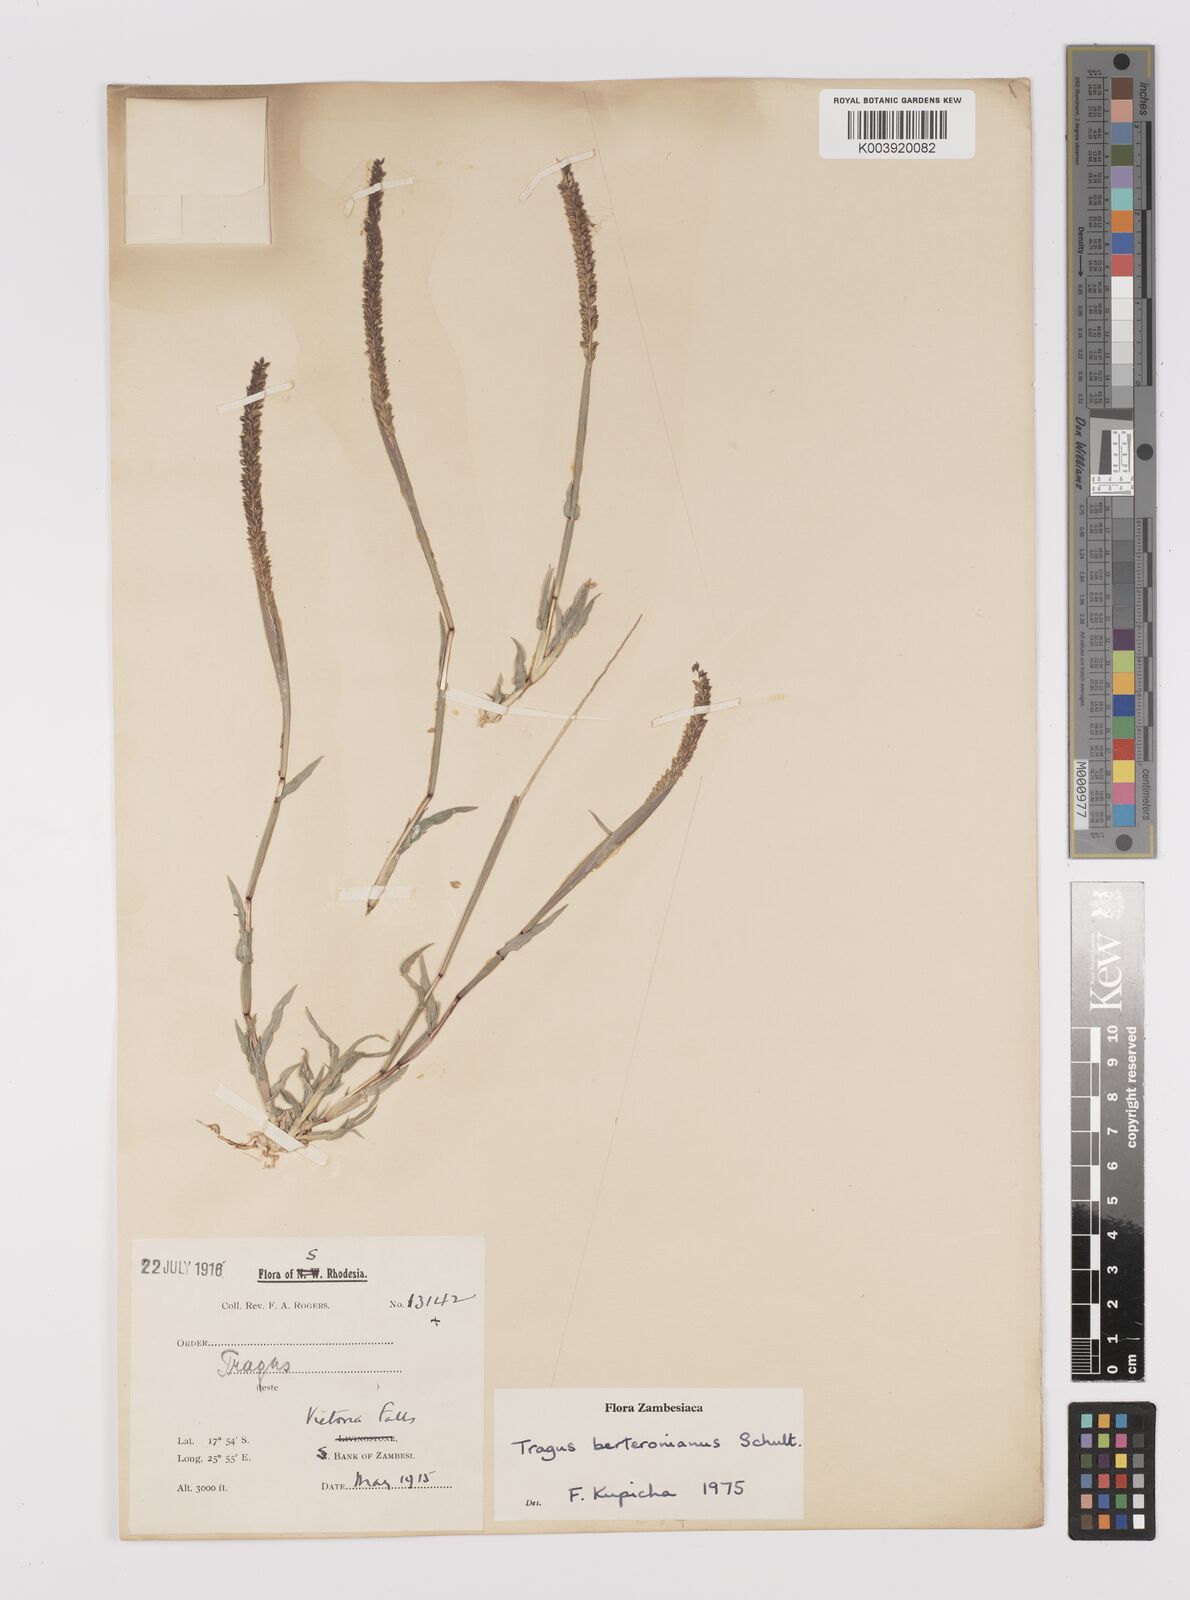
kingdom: Plantae
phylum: Tracheophyta
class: Liliopsida
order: Poales
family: Poaceae
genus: Tragus
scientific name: Tragus berteronianus
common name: African bur-grass
